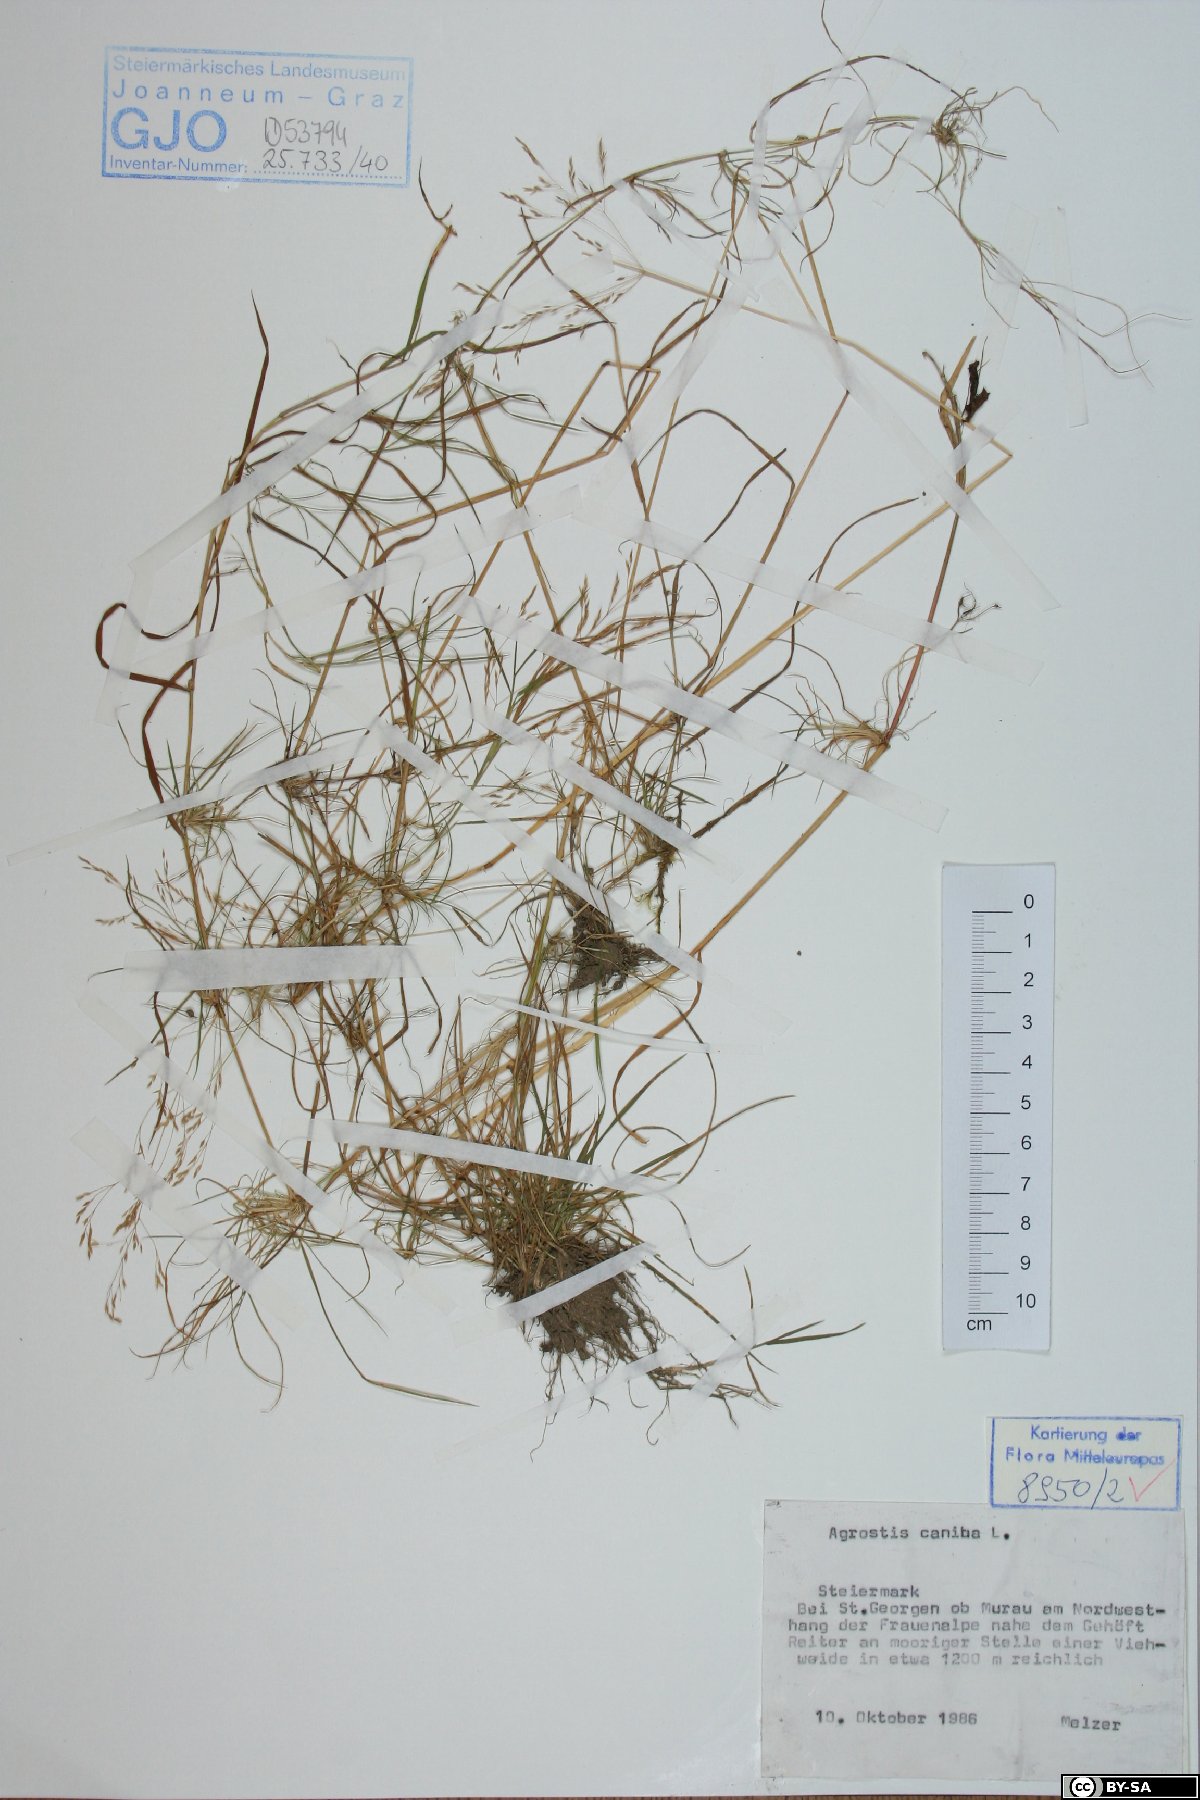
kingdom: Plantae
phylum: Tracheophyta
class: Liliopsida
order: Poales
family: Poaceae
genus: Agrostis
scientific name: Agrostis canina
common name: Velvet bent
